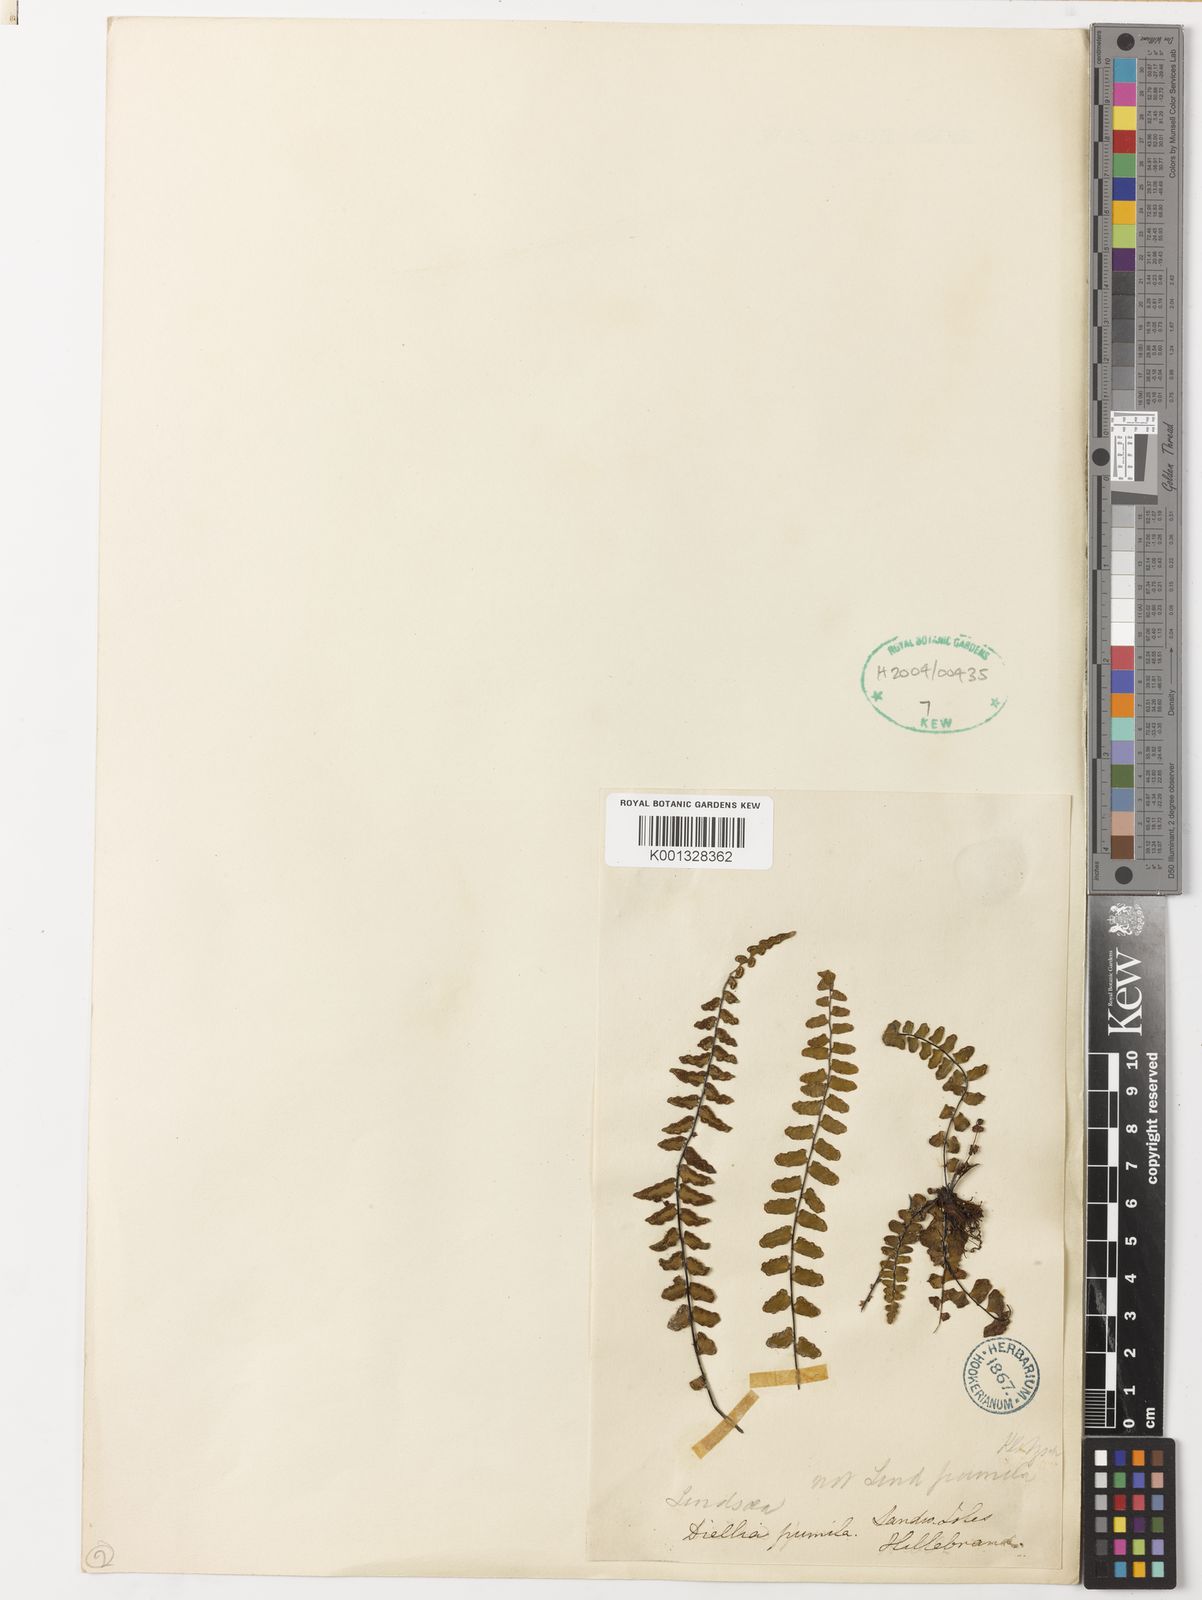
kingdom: Plantae
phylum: Tracheophyta
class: Polypodiopsida
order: Polypodiales
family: Aspleniaceae
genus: Asplenium
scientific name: Asplenium dielerectum
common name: Erect island spleenwort
